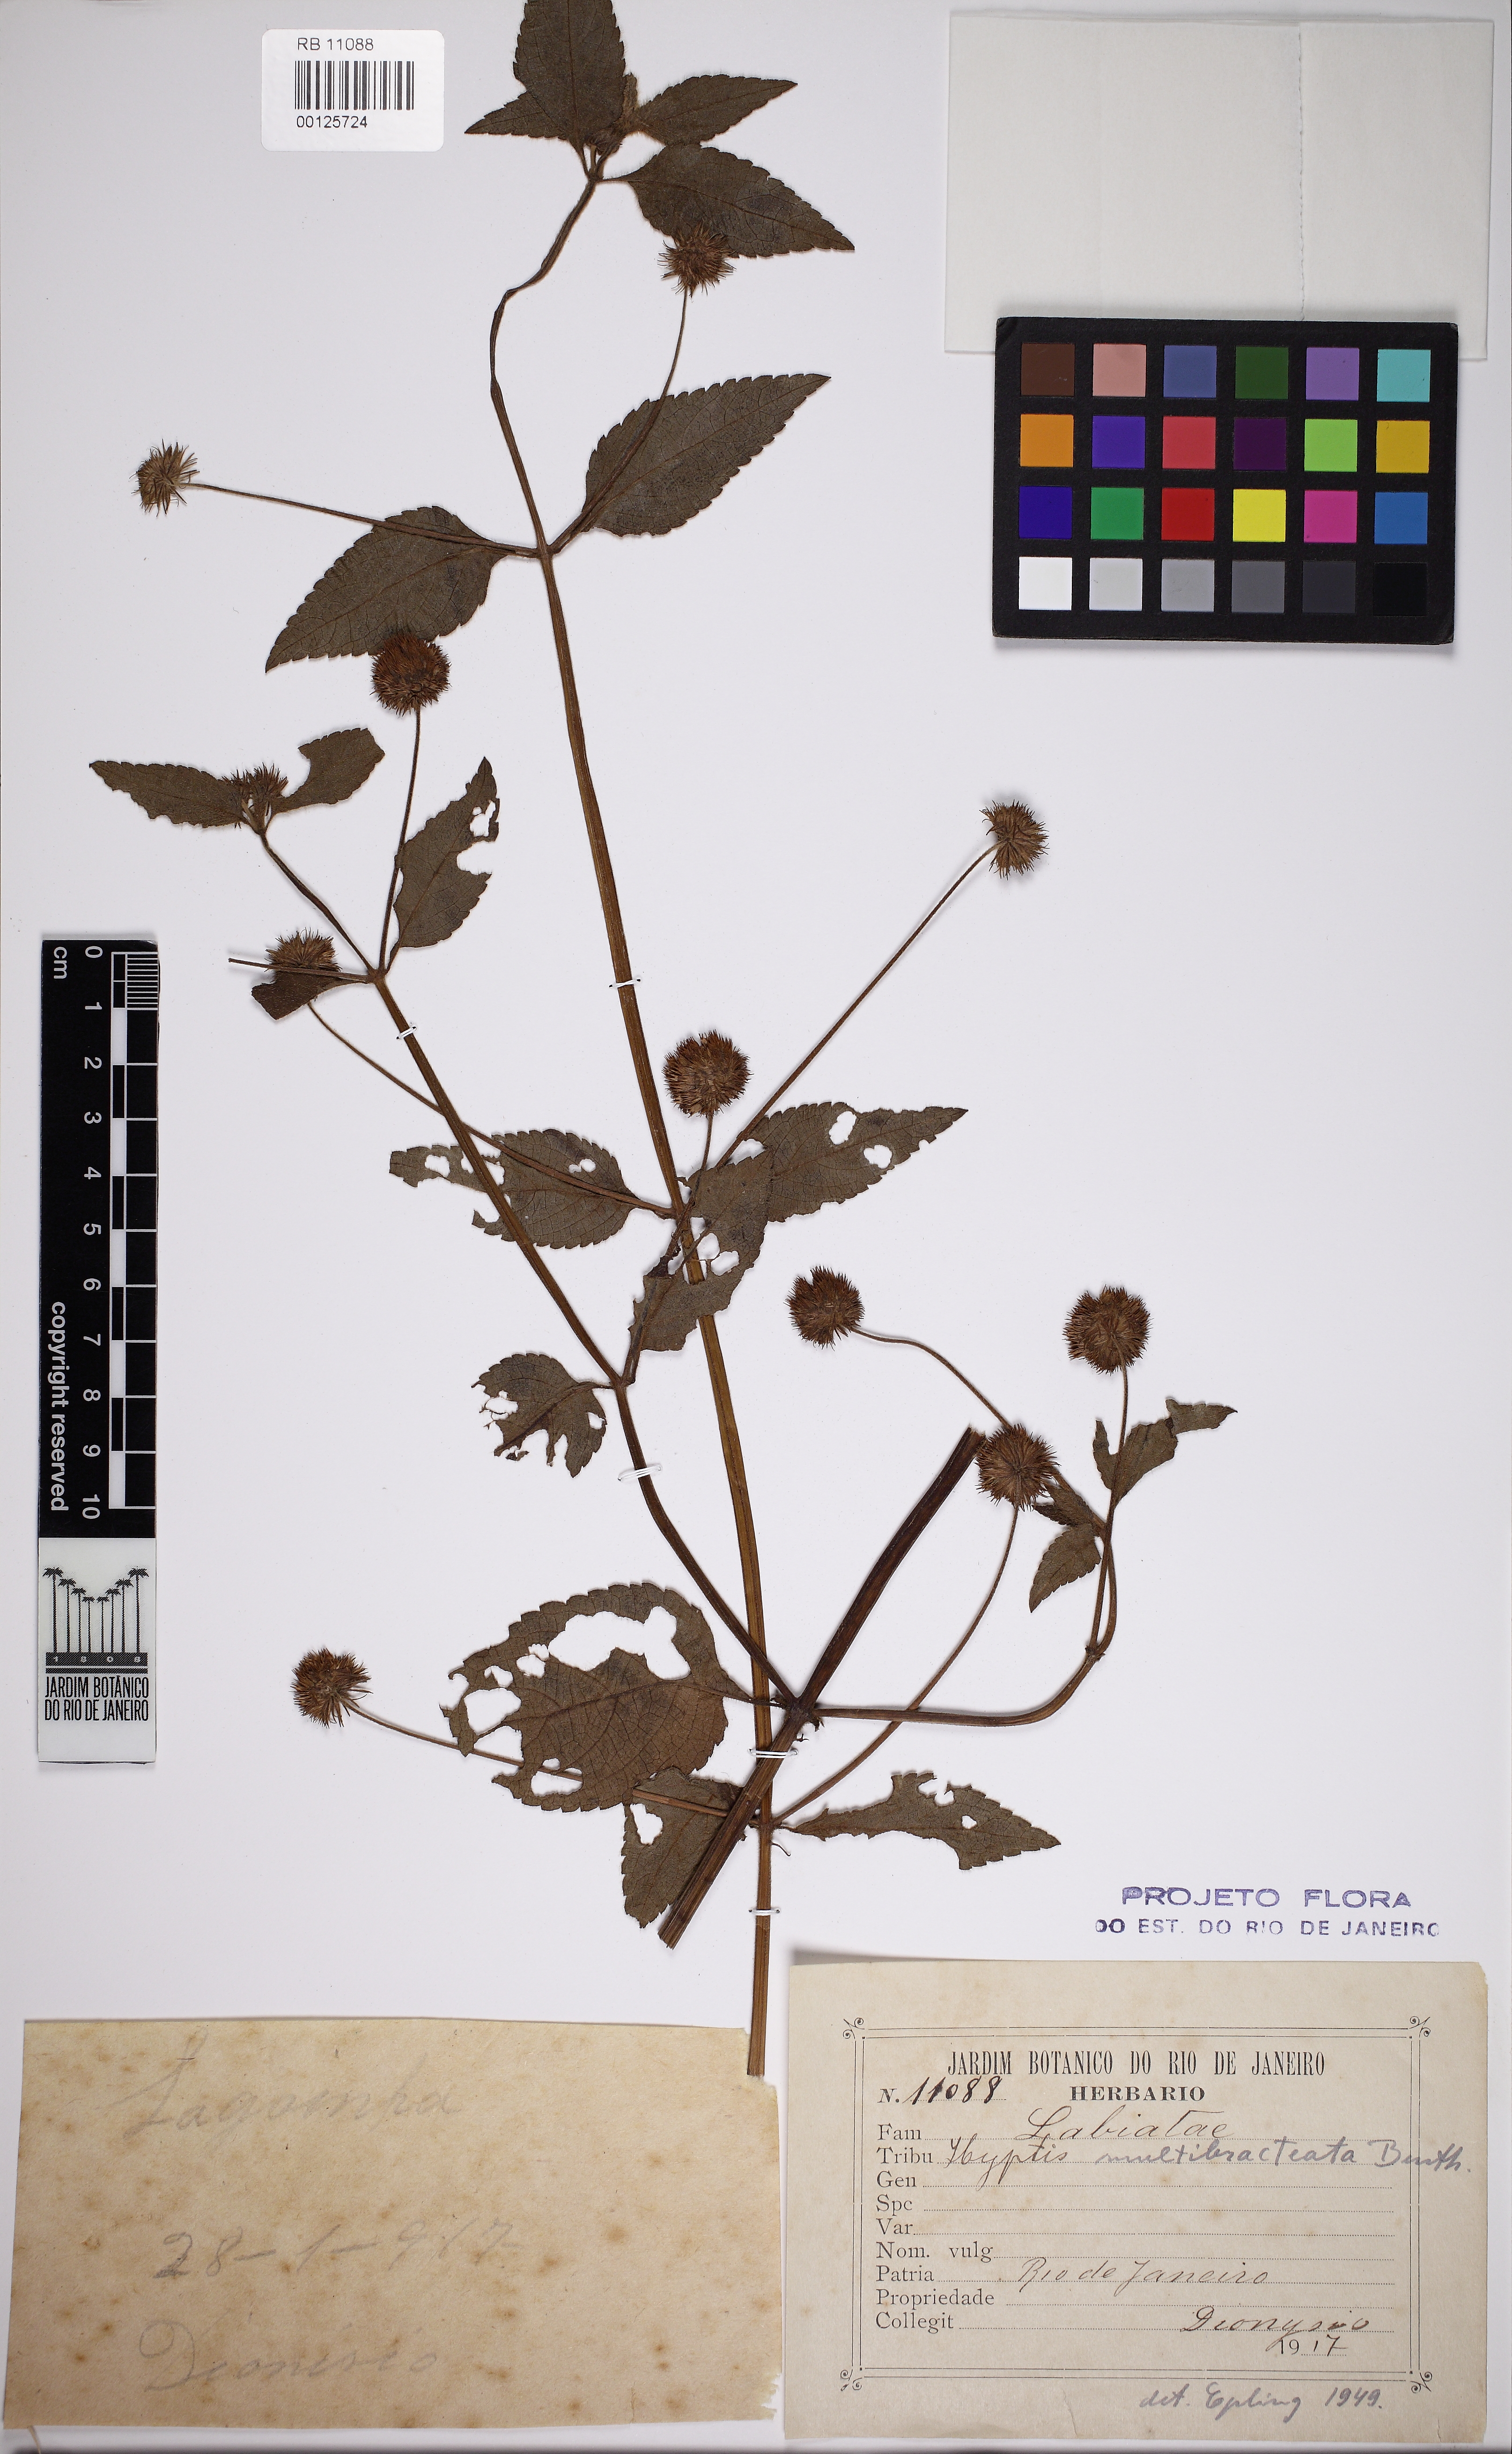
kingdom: Plantae
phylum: Tracheophyta
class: Magnoliopsida
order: Lamiales
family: Lamiaceae
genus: Hyptis
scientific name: Hyptis multibracteata
